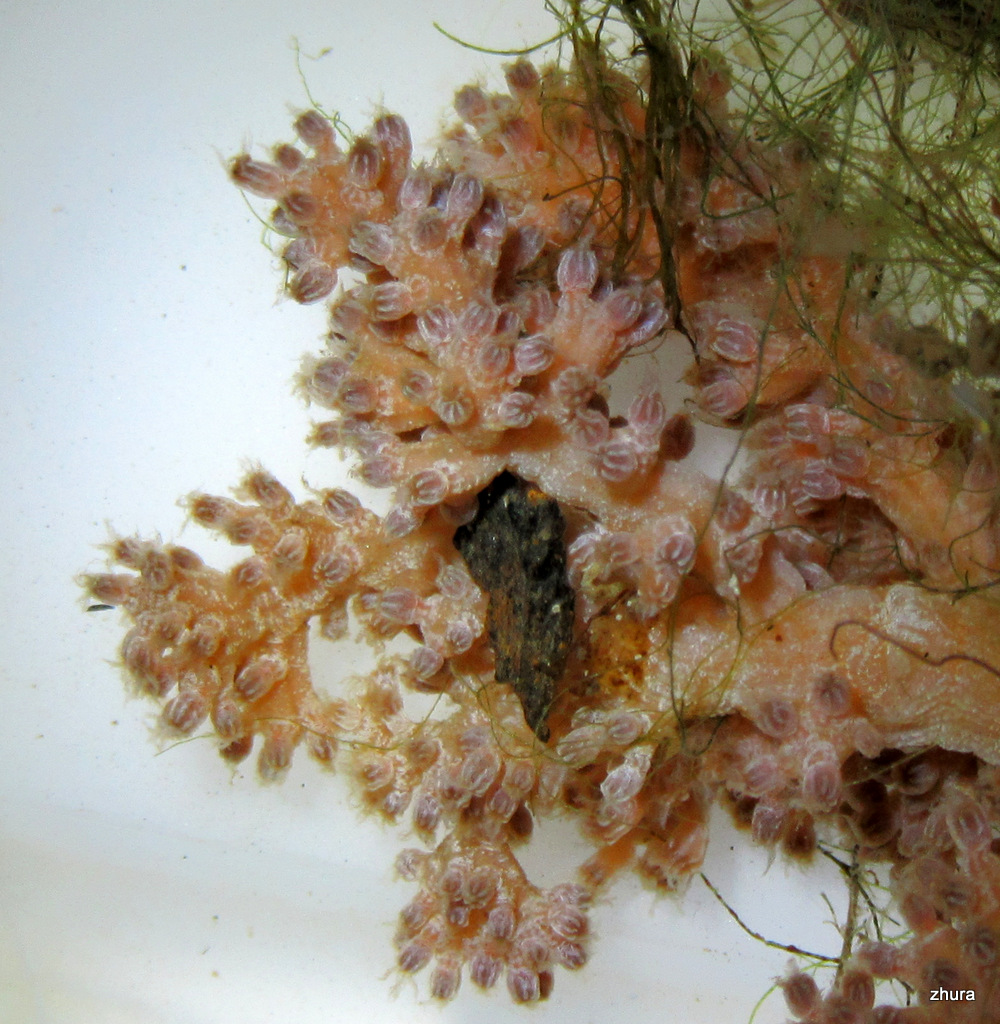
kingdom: Animalia
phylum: Cnidaria
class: Anthozoa
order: Malacalcyonacea
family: Alcyoniidae
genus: Gersemia
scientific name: Gersemia fruticosa
